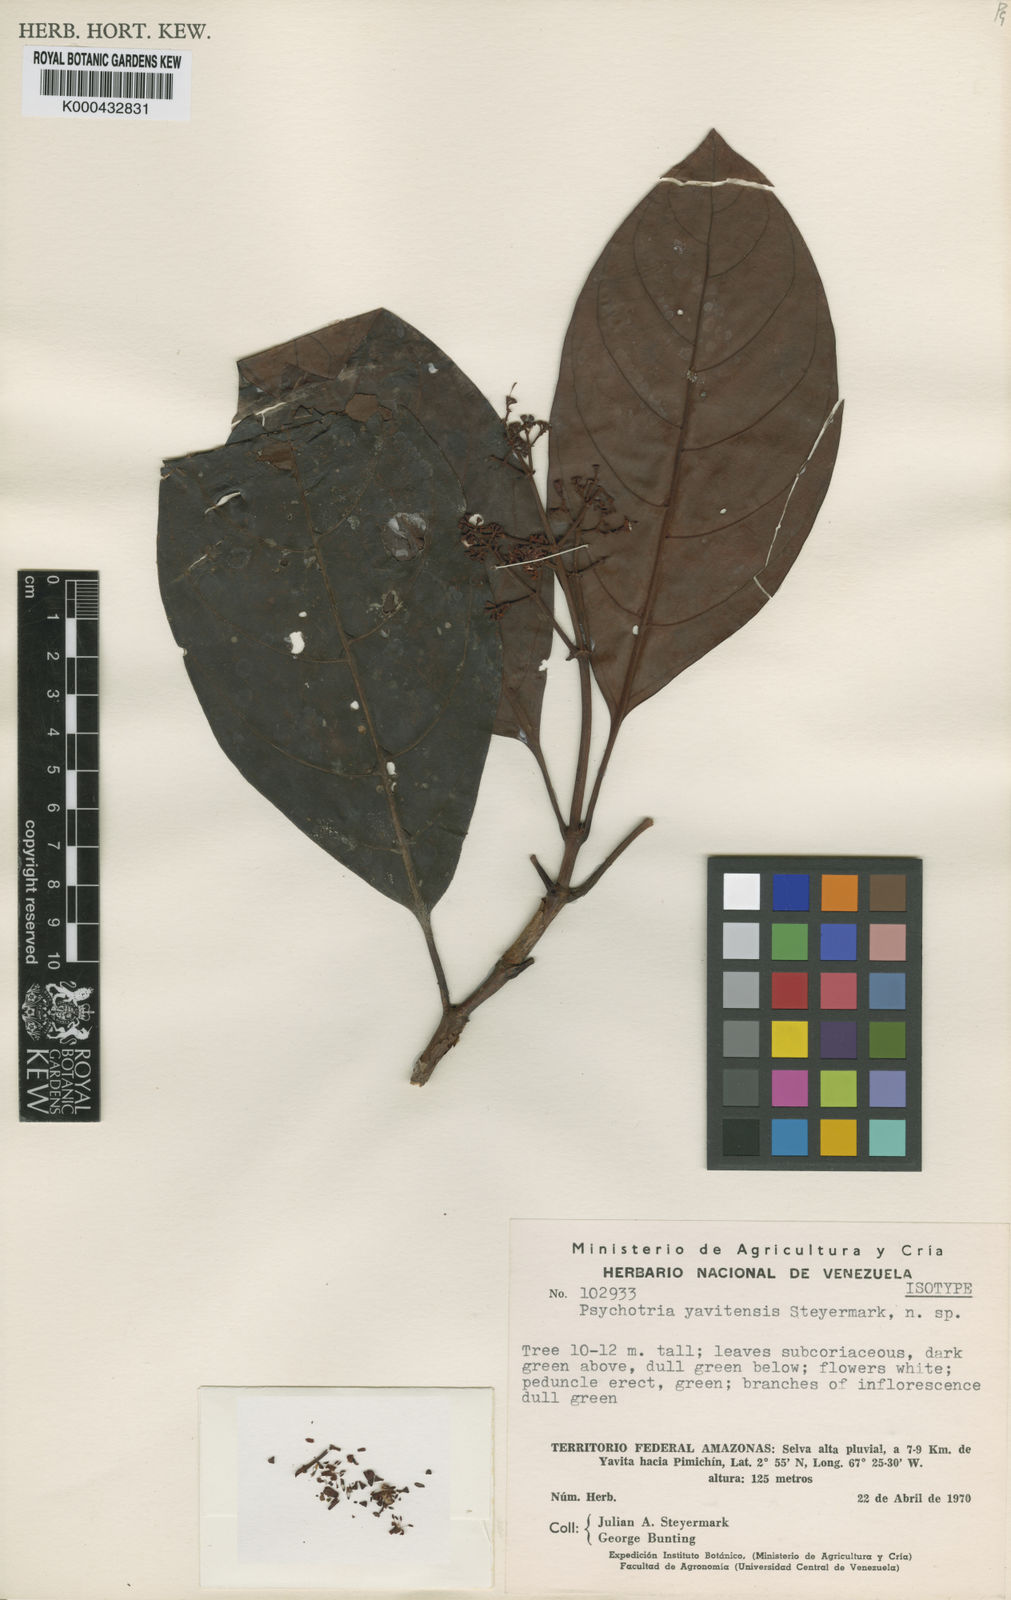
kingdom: Plantae
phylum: Tracheophyta
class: Magnoliopsida
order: Gentianales
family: Rubiaceae
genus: Psychotria
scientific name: Psychotria yavitensis
